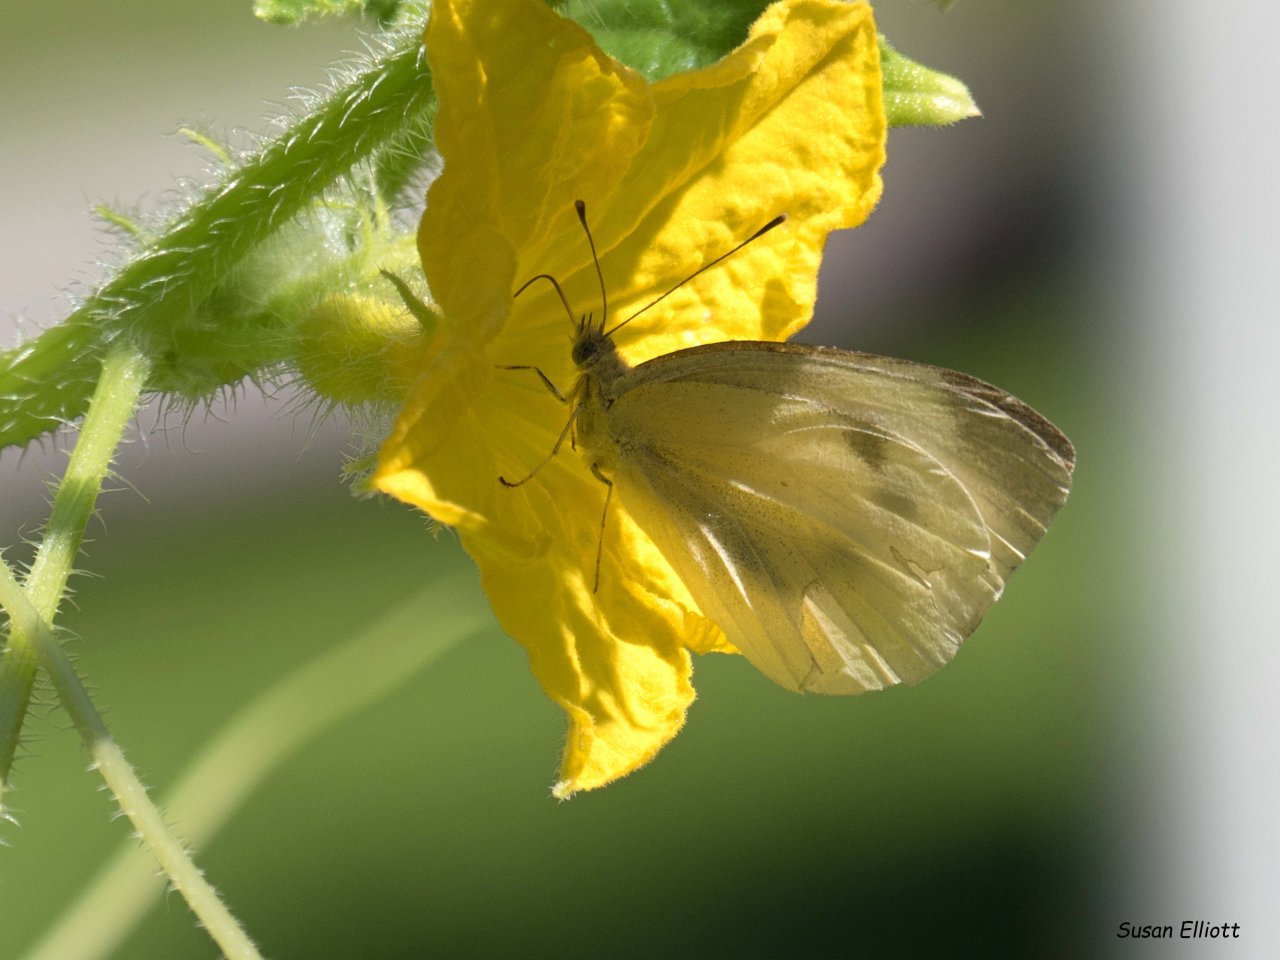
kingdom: Animalia
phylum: Arthropoda
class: Insecta
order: Lepidoptera
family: Pieridae
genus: Pieris
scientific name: Pieris rapae
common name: Cabbage White
